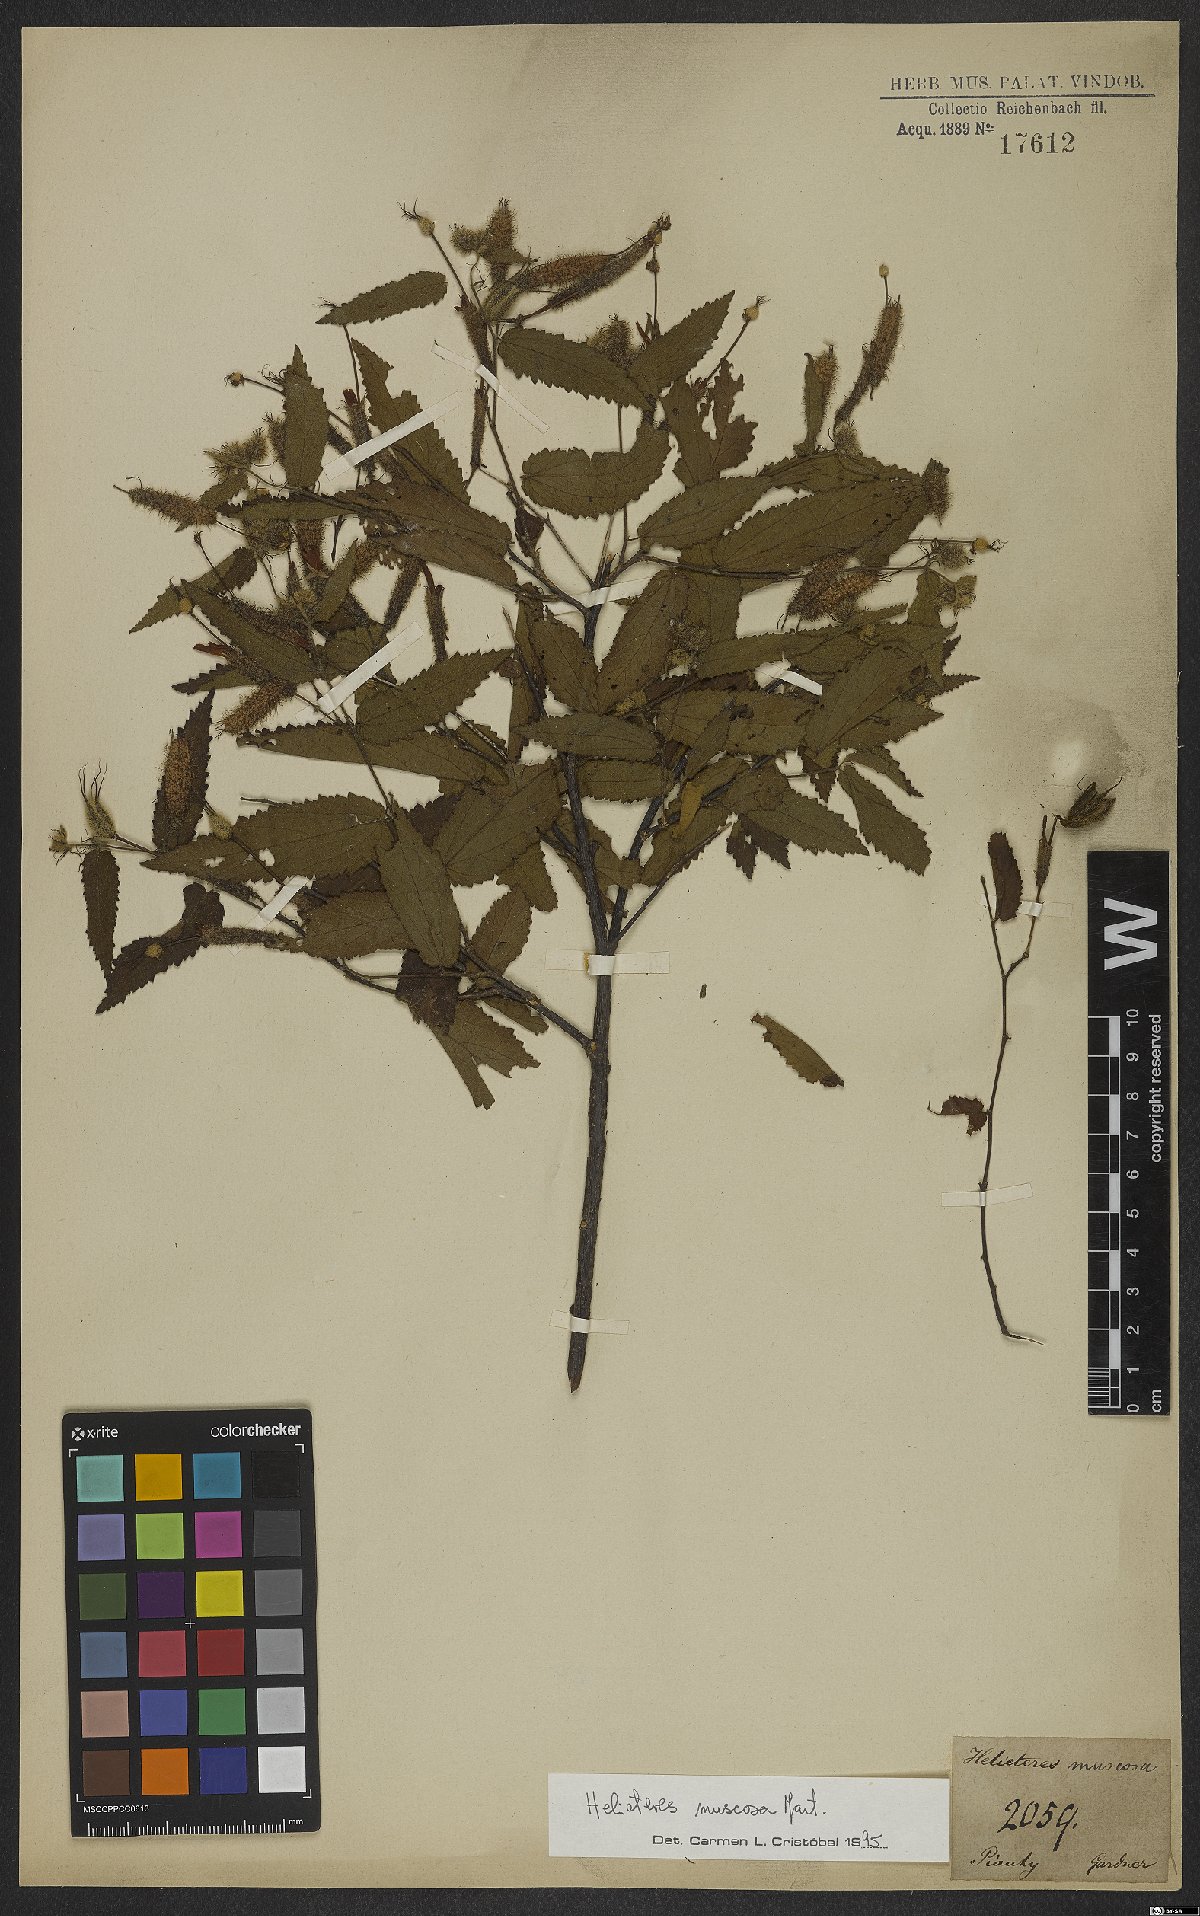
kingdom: Plantae
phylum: Tracheophyta
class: Magnoliopsida
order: Malvales
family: Malvaceae
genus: Helicteres
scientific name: Helicteres muscosa
